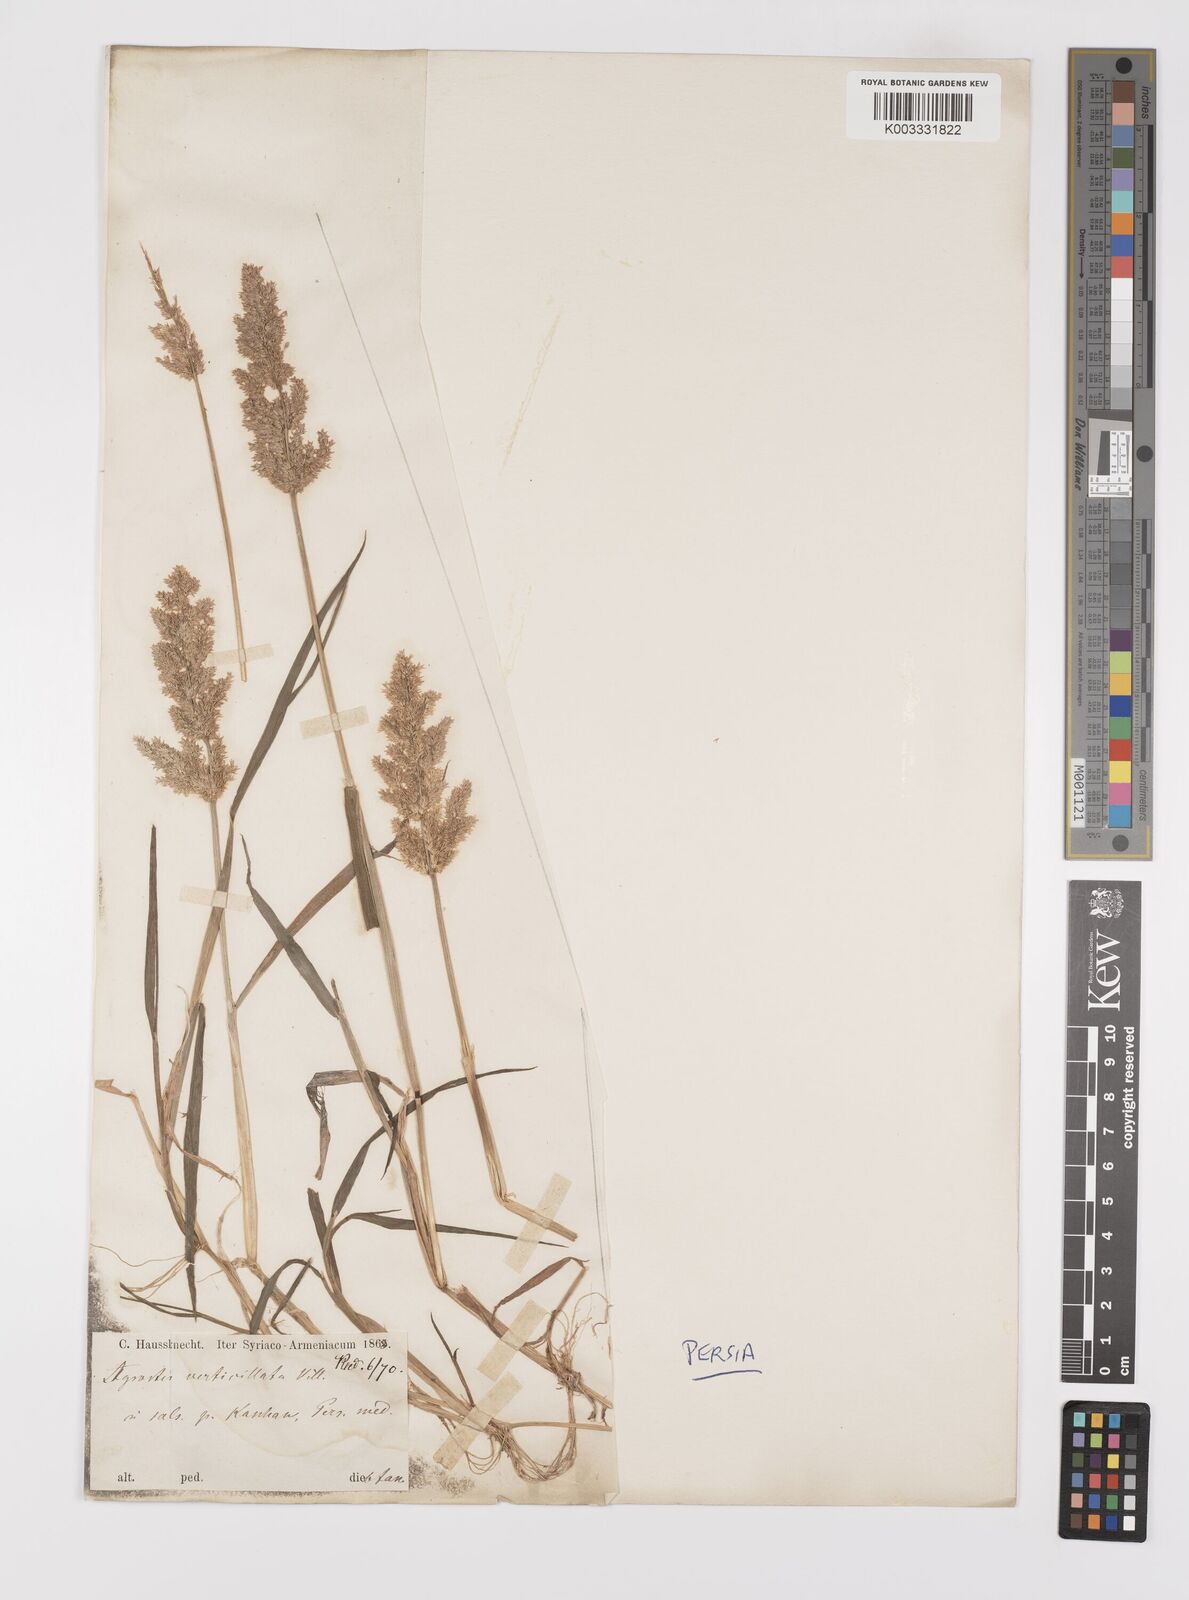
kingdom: Plantae
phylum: Tracheophyta
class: Liliopsida
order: Poales
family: Poaceae
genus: Polypogon
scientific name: Polypogon viridis
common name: Water bent
